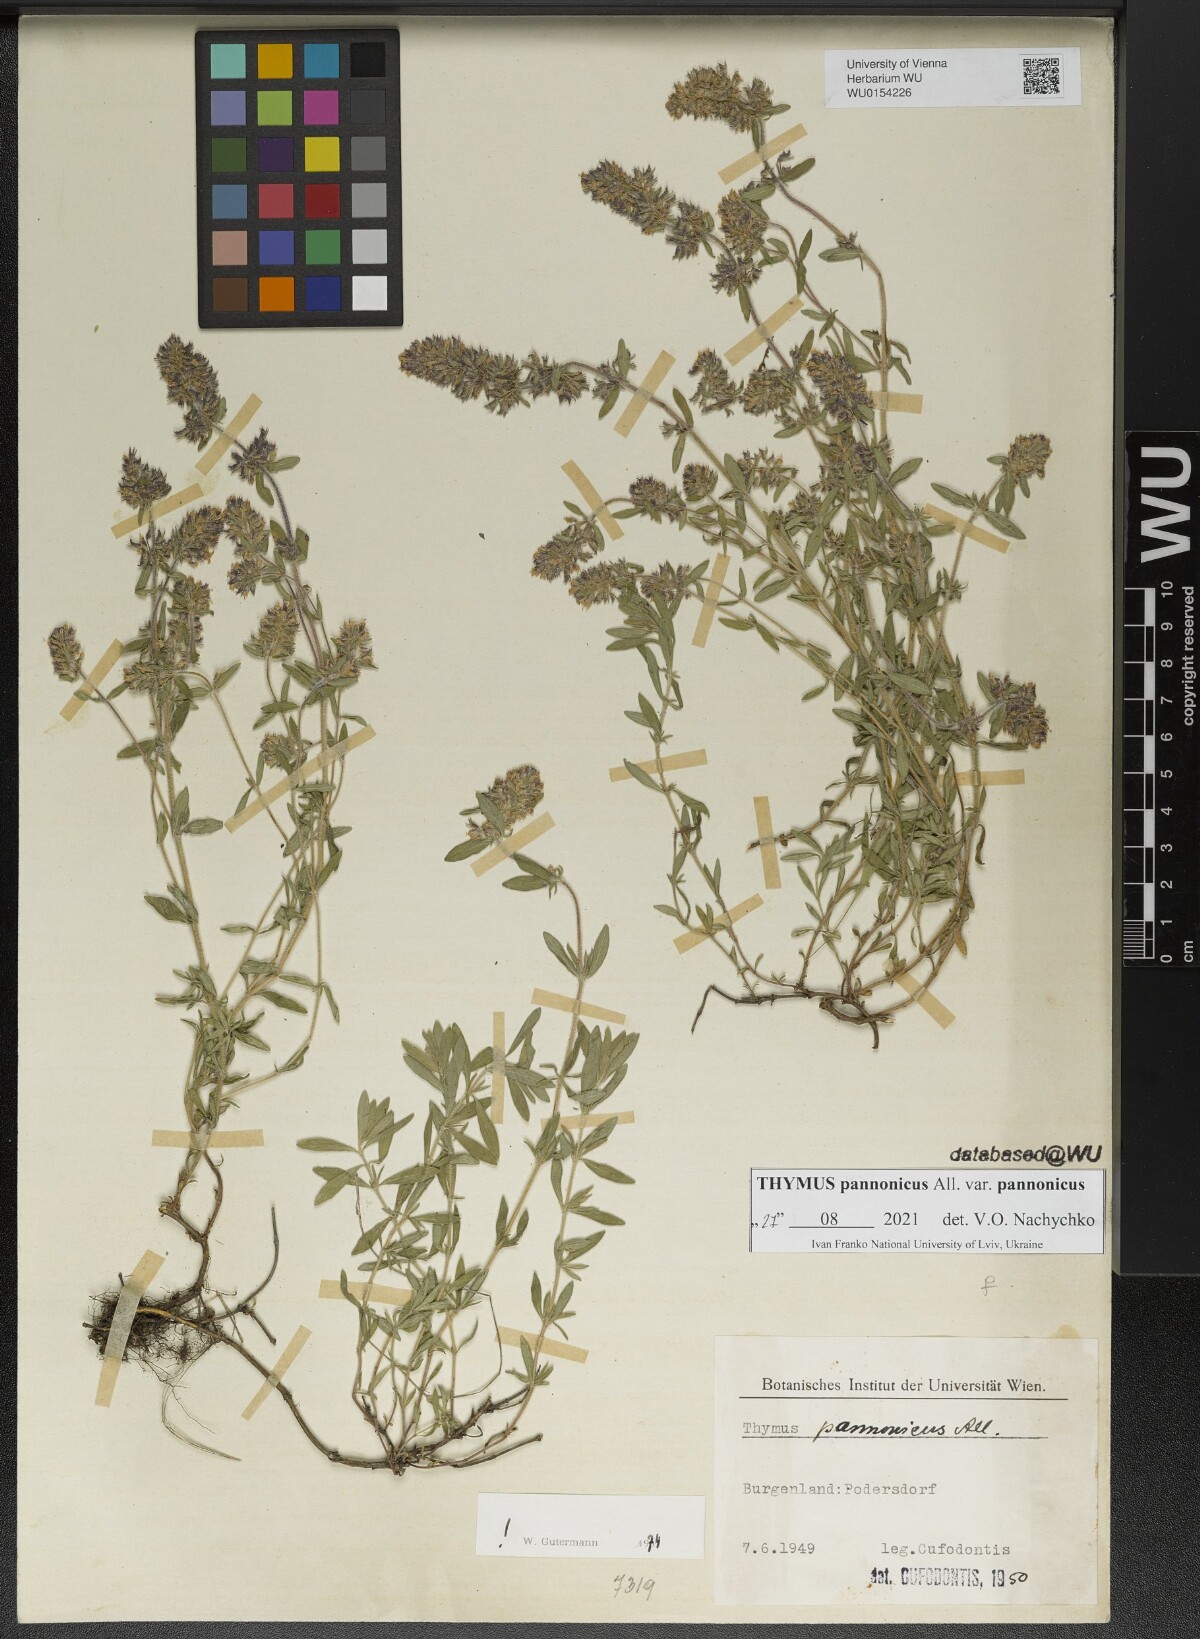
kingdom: Plantae
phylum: Tracheophyta
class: Magnoliopsida
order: Lamiales
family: Lamiaceae
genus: Thymus
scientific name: Thymus pannonicus
